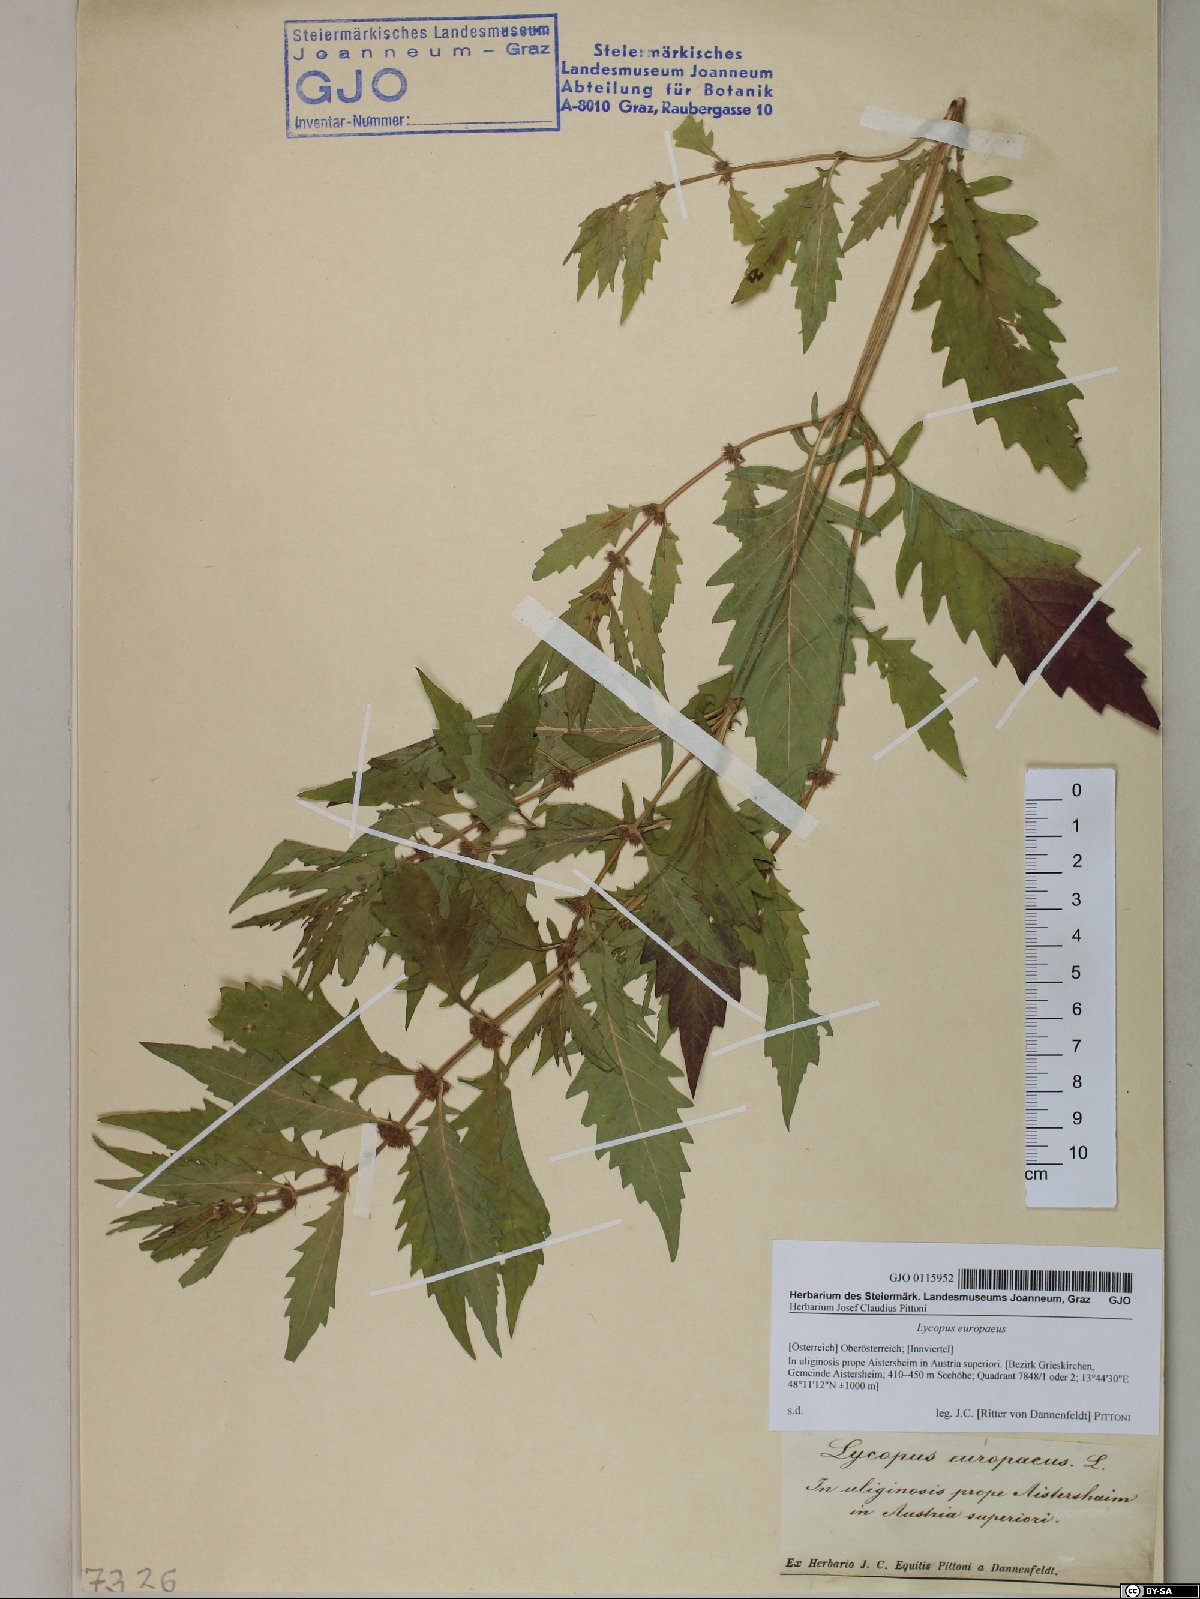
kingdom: Plantae
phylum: Tracheophyta
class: Magnoliopsida
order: Lamiales
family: Lamiaceae
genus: Lycopus
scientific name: Lycopus europaeus
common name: European bugleweed
